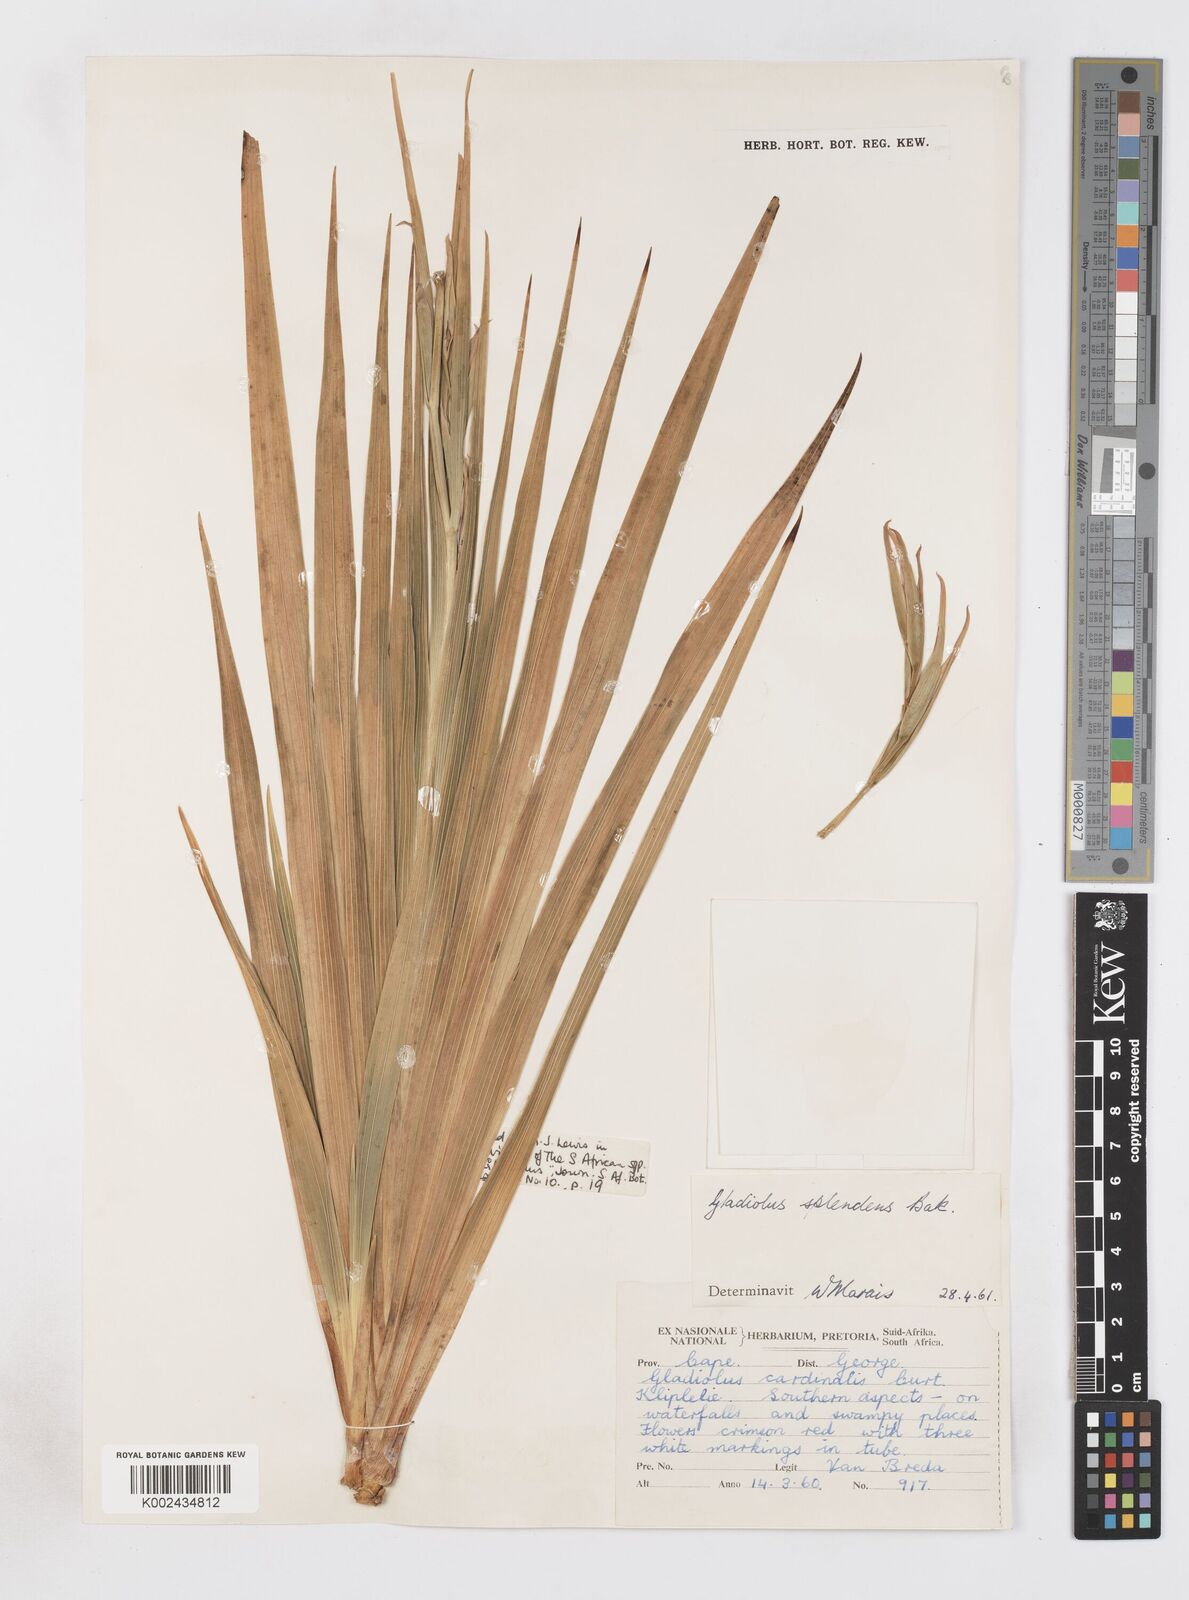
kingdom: Plantae
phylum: Tracheophyta
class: Liliopsida
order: Asparagales
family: Iridaceae
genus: Gladiolus
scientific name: Gladiolus sempervirens
